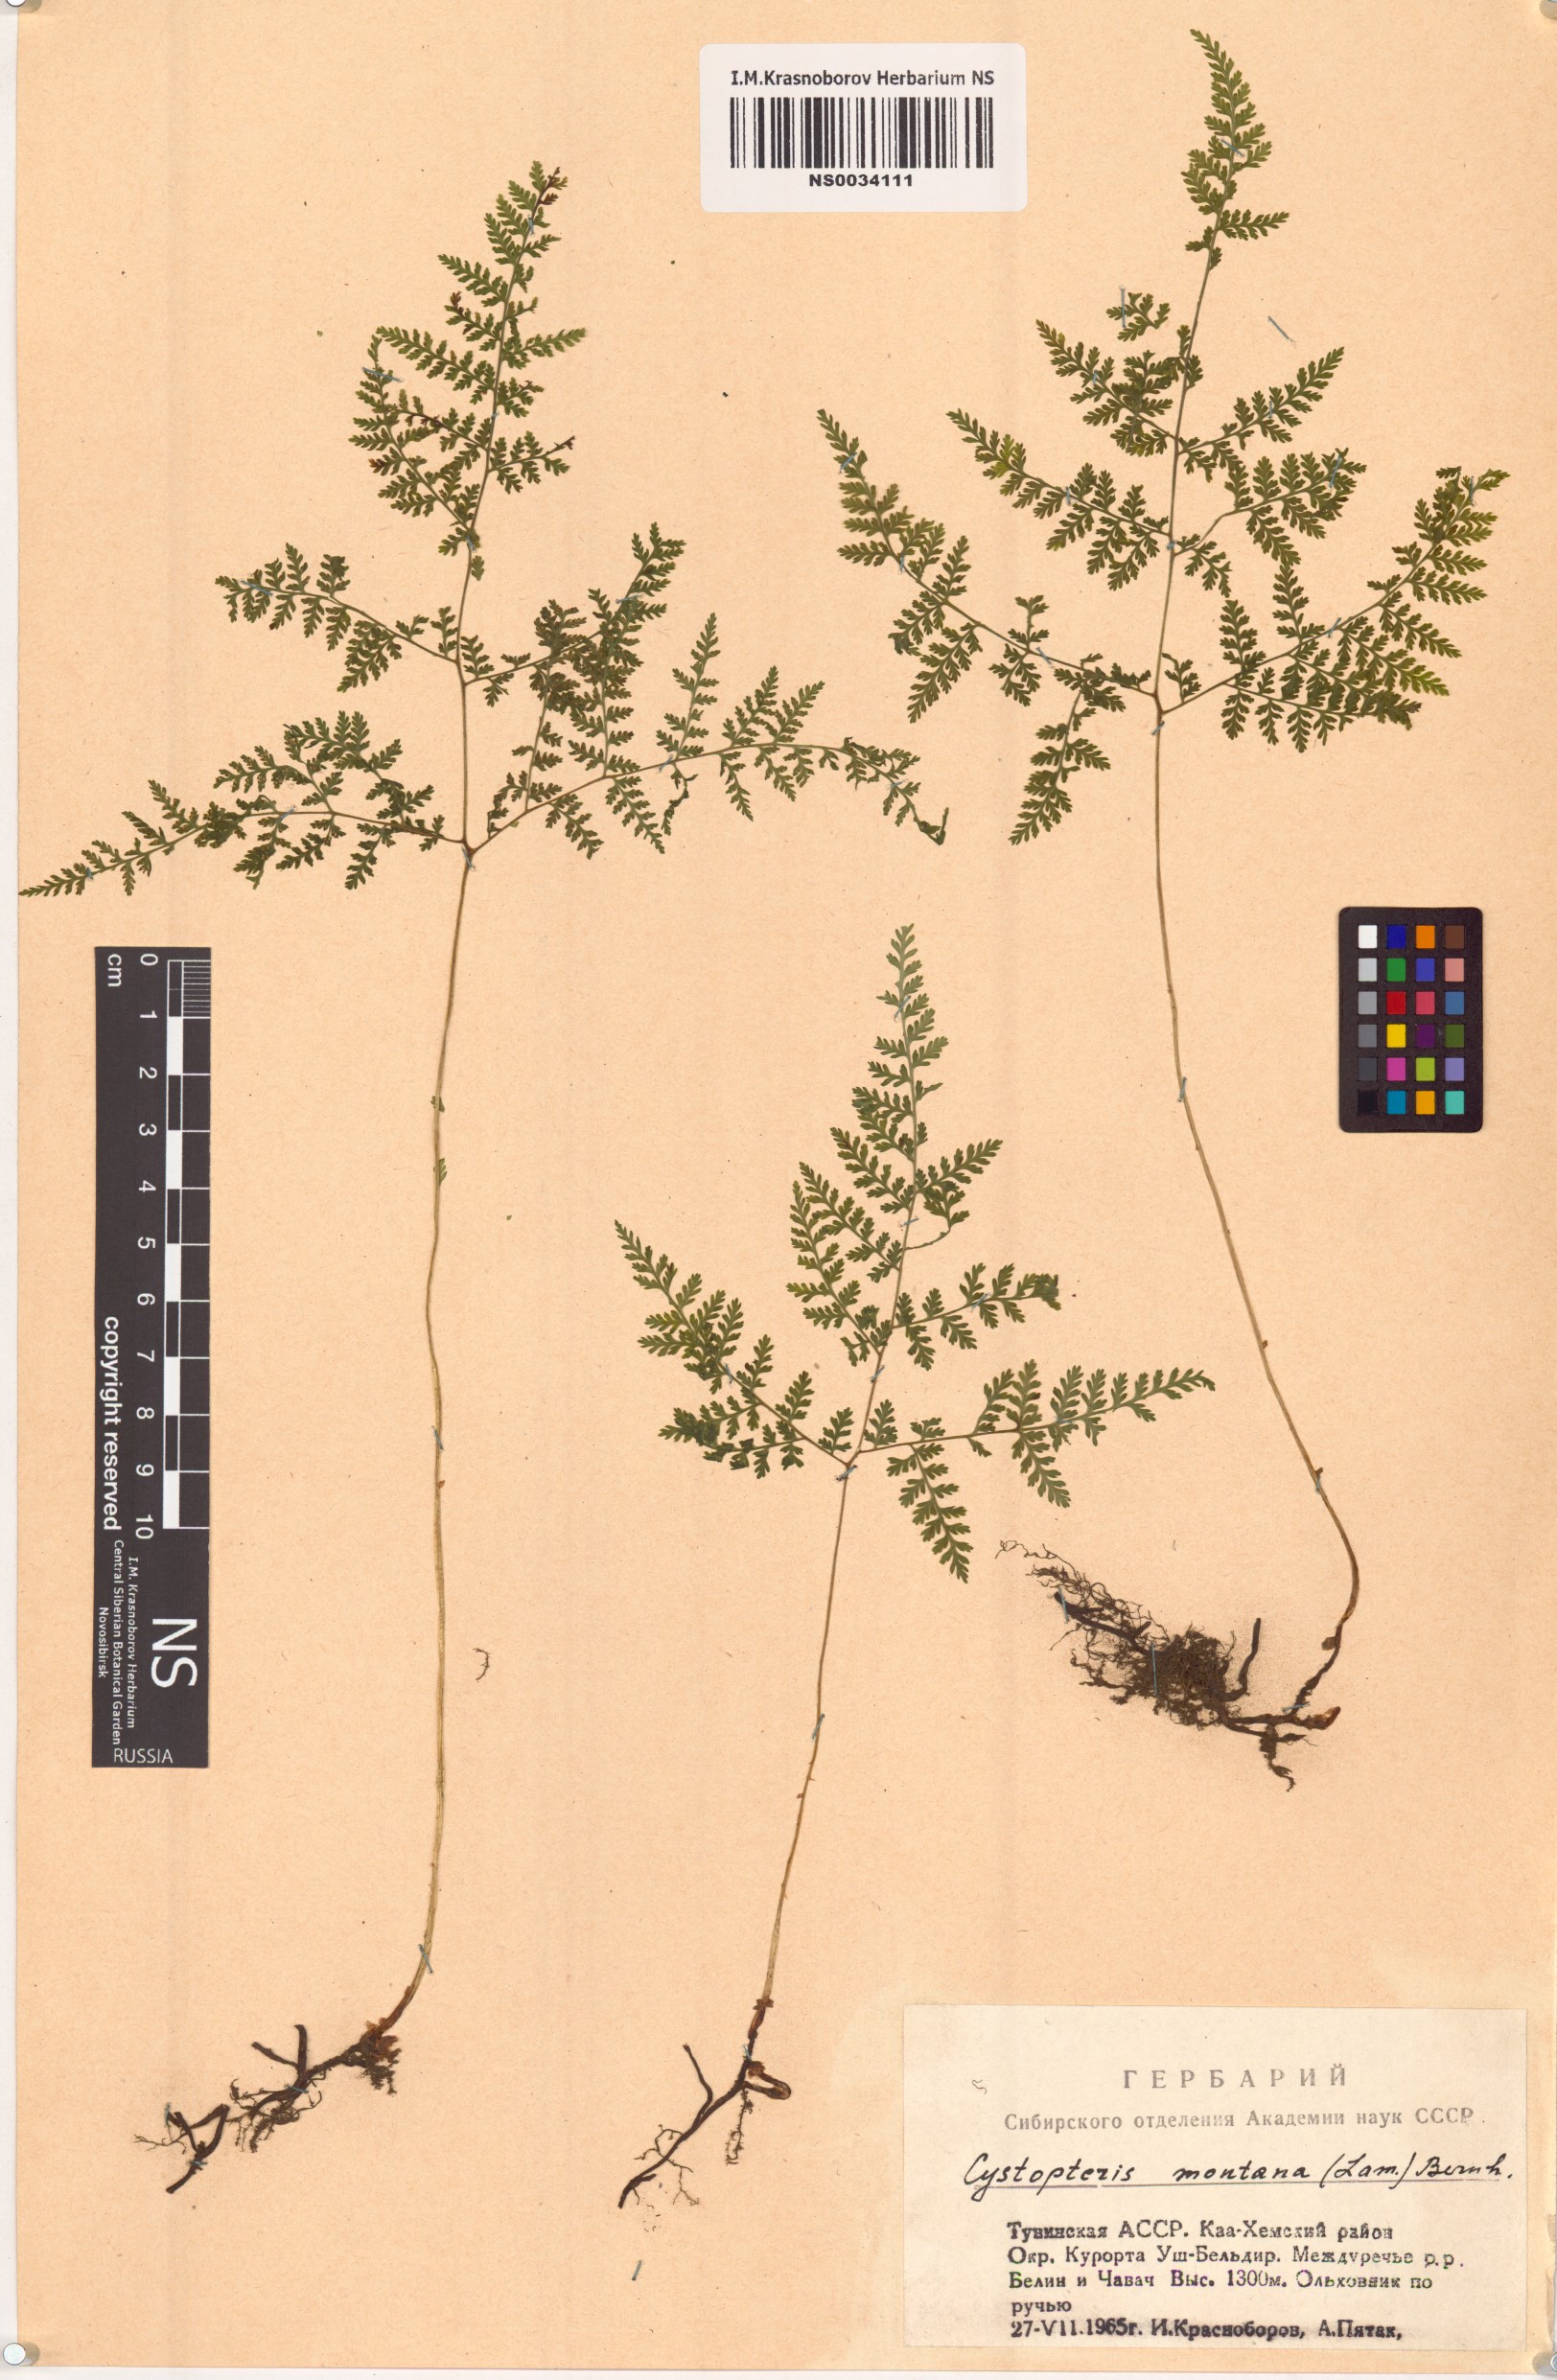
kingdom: Plantae
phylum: Tracheophyta
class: Polypodiopsida
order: Polypodiales
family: Cystopteridaceae
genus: Cystopteris
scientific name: Cystopteris montana
